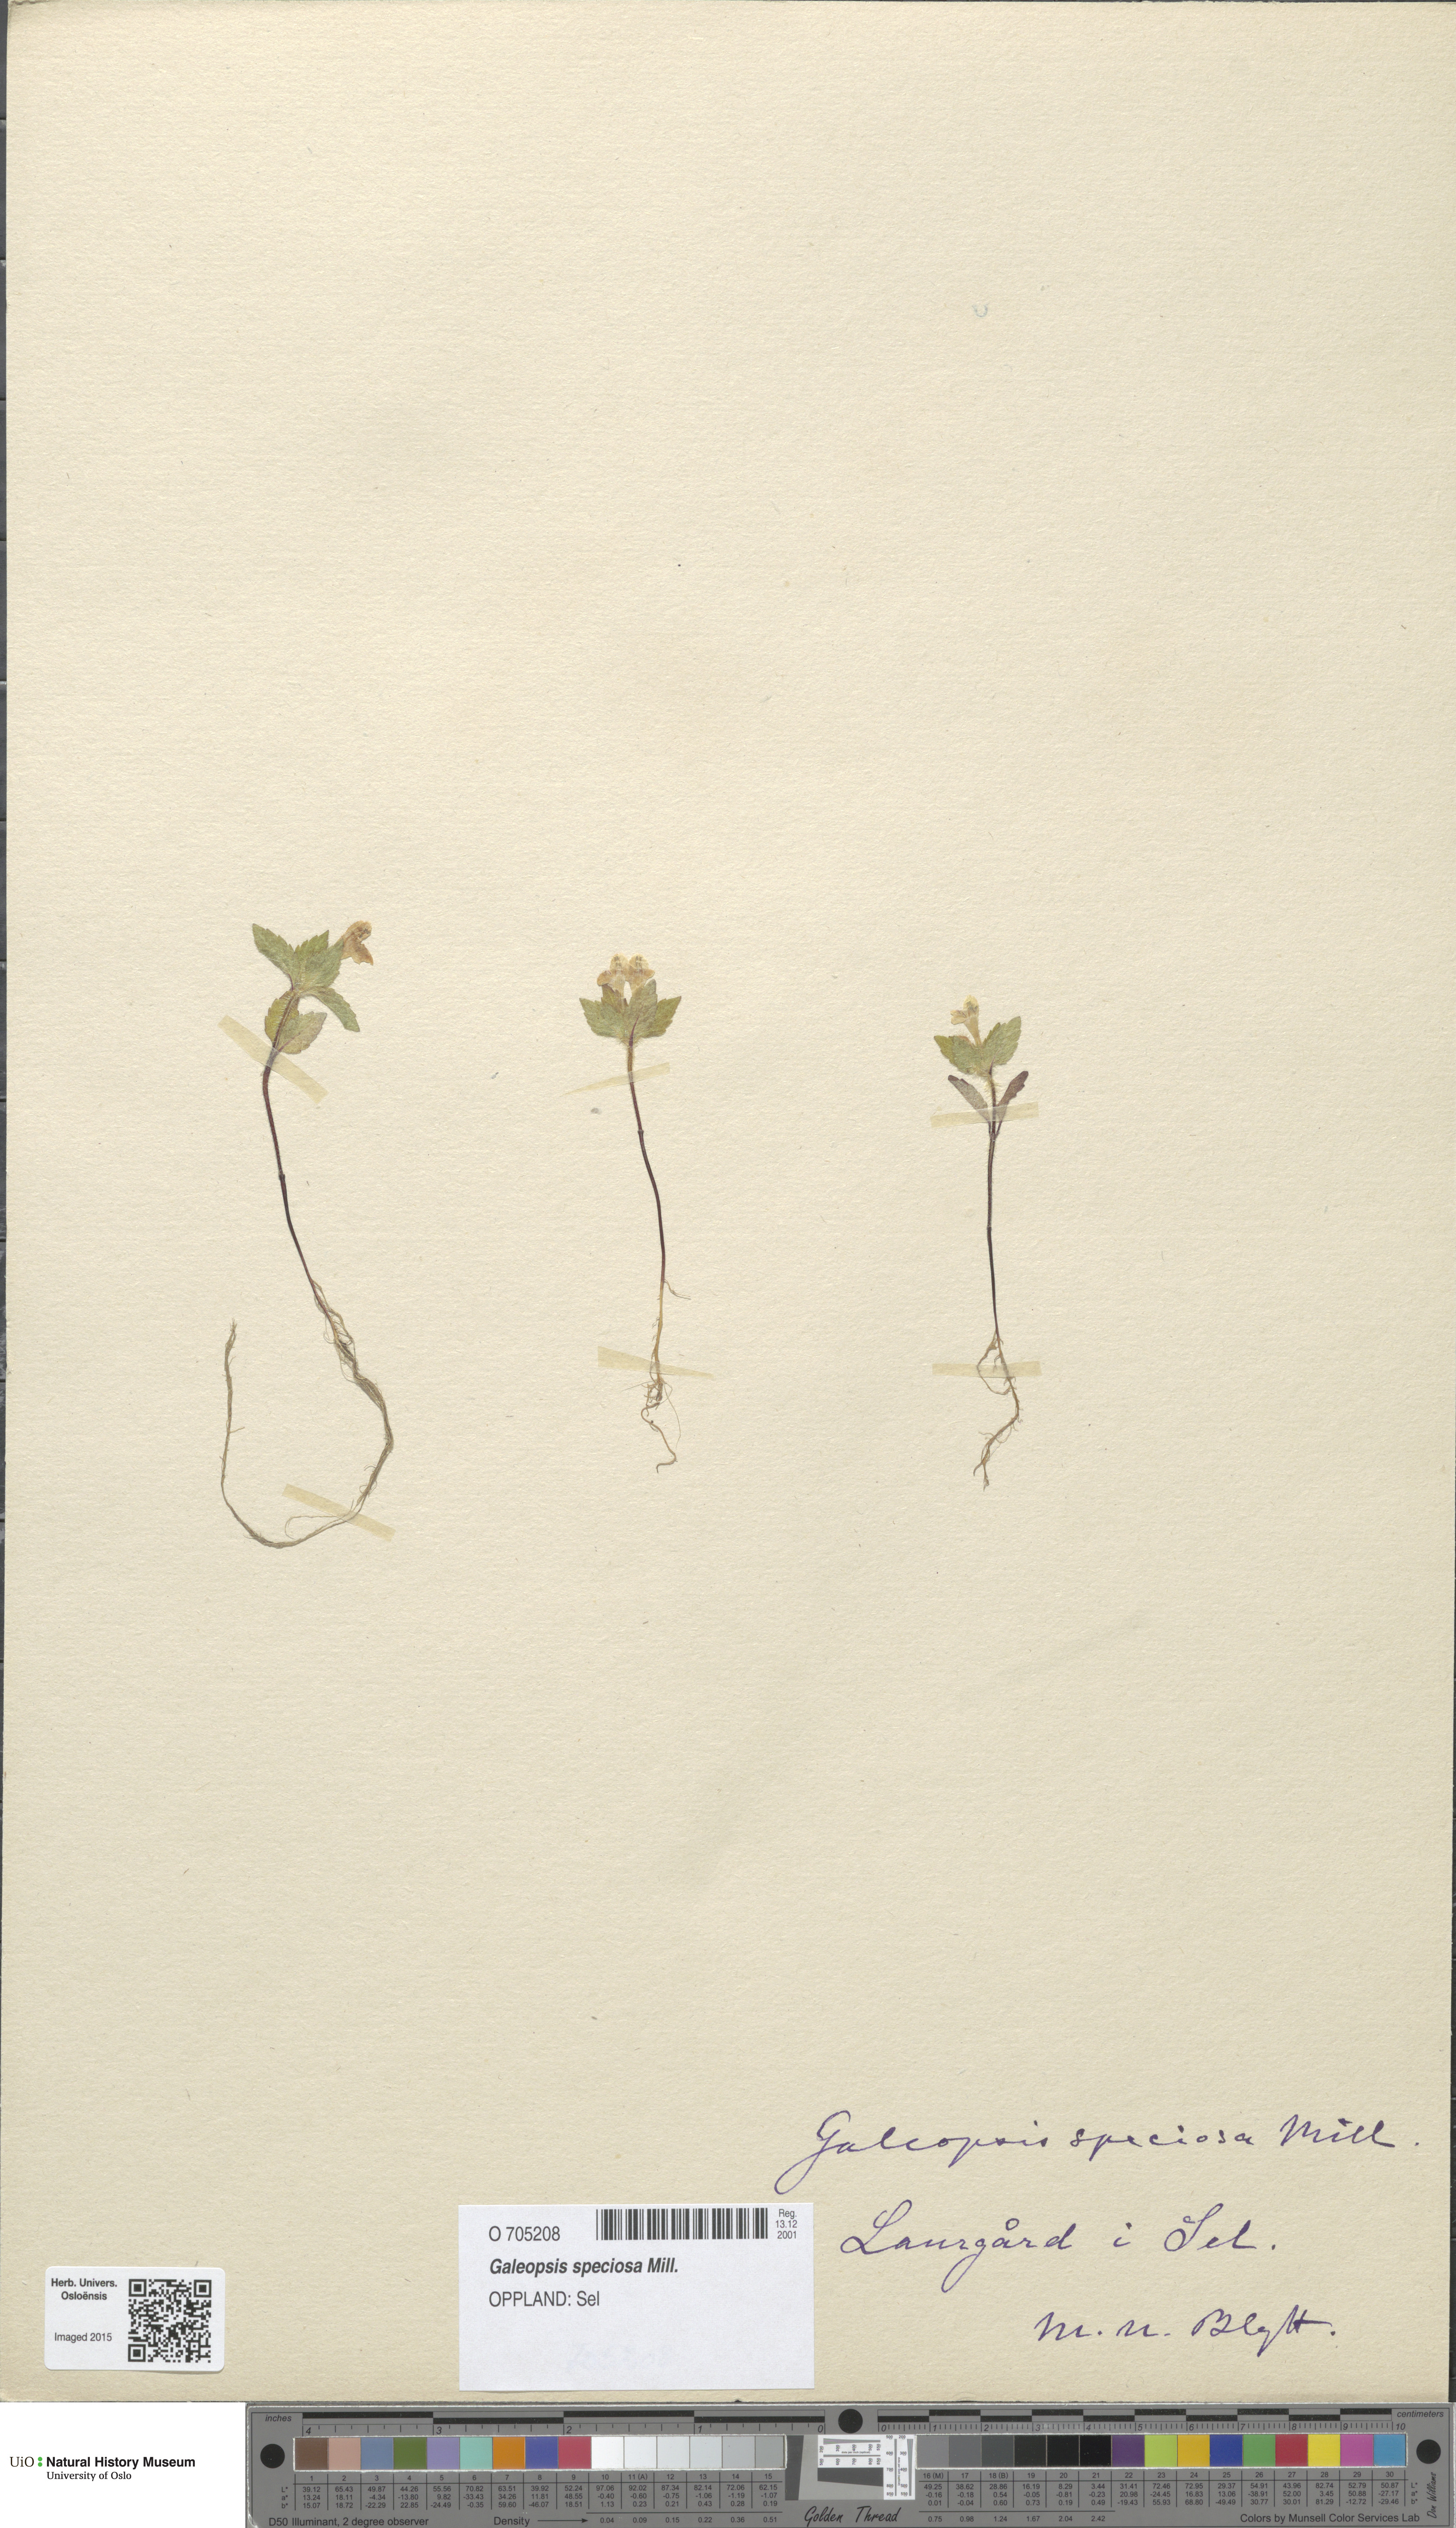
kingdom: Plantae
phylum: Tracheophyta
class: Magnoliopsida
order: Lamiales
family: Lamiaceae
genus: Galeopsis
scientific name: Galeopsis speciosa
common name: Large-flowered hemp-nettle
